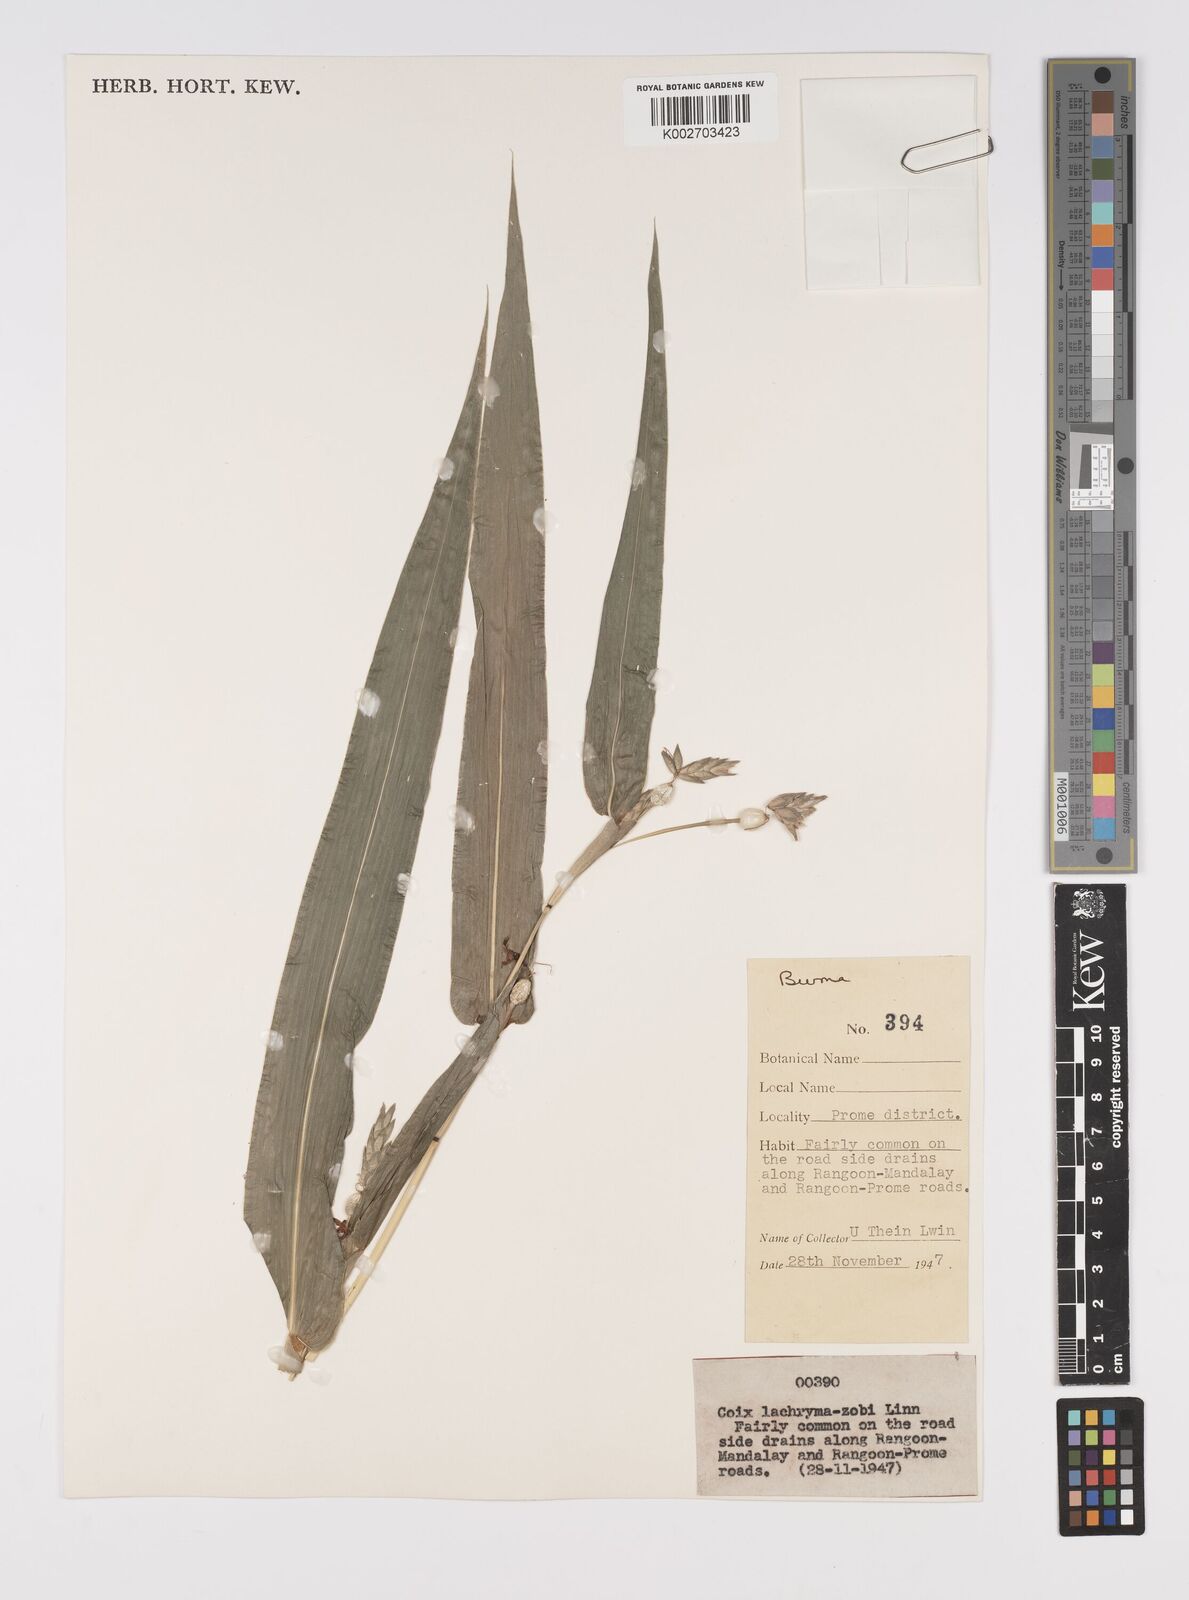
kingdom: Plantae
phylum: Tracheophyta
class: Liliopsida
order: Poales
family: Poaceae
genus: Coix
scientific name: Coix lacryma-jobi
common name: Job's tears
